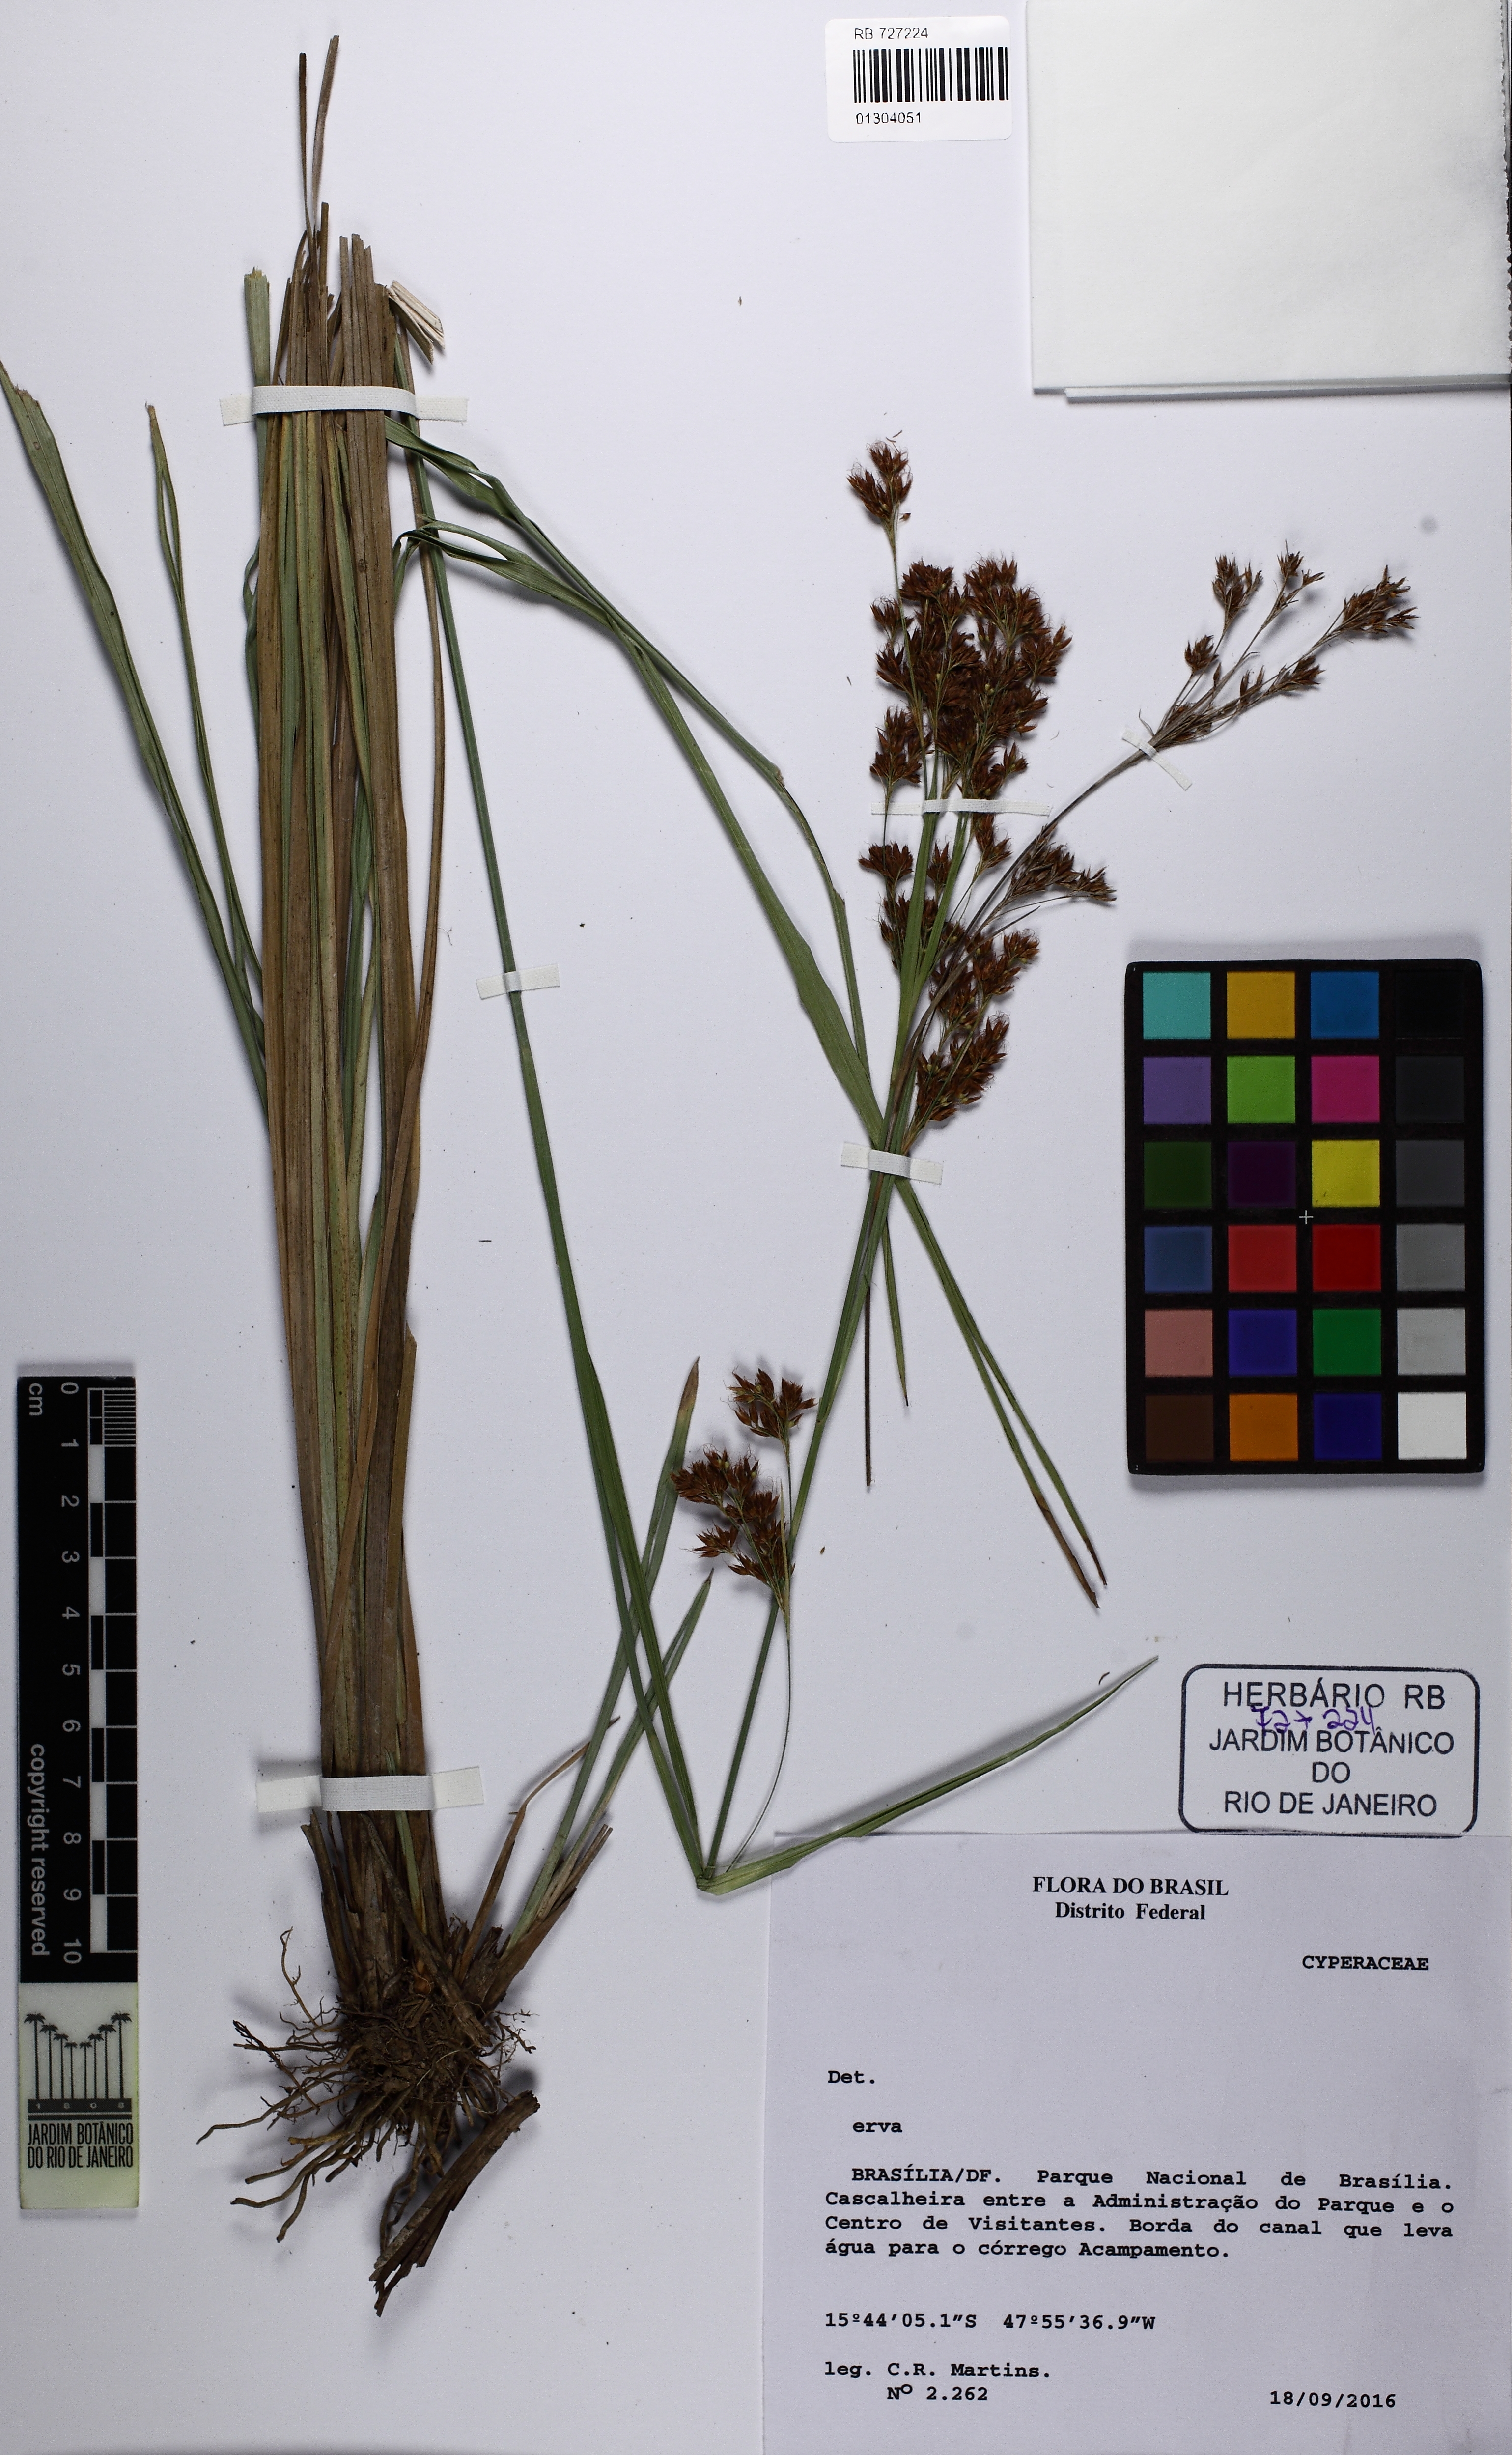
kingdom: Plantae
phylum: Tracheophyta
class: Liliopsida
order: Poales
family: Cyperaceae
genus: Rhynchospora
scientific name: Rhynchospora rugosa
